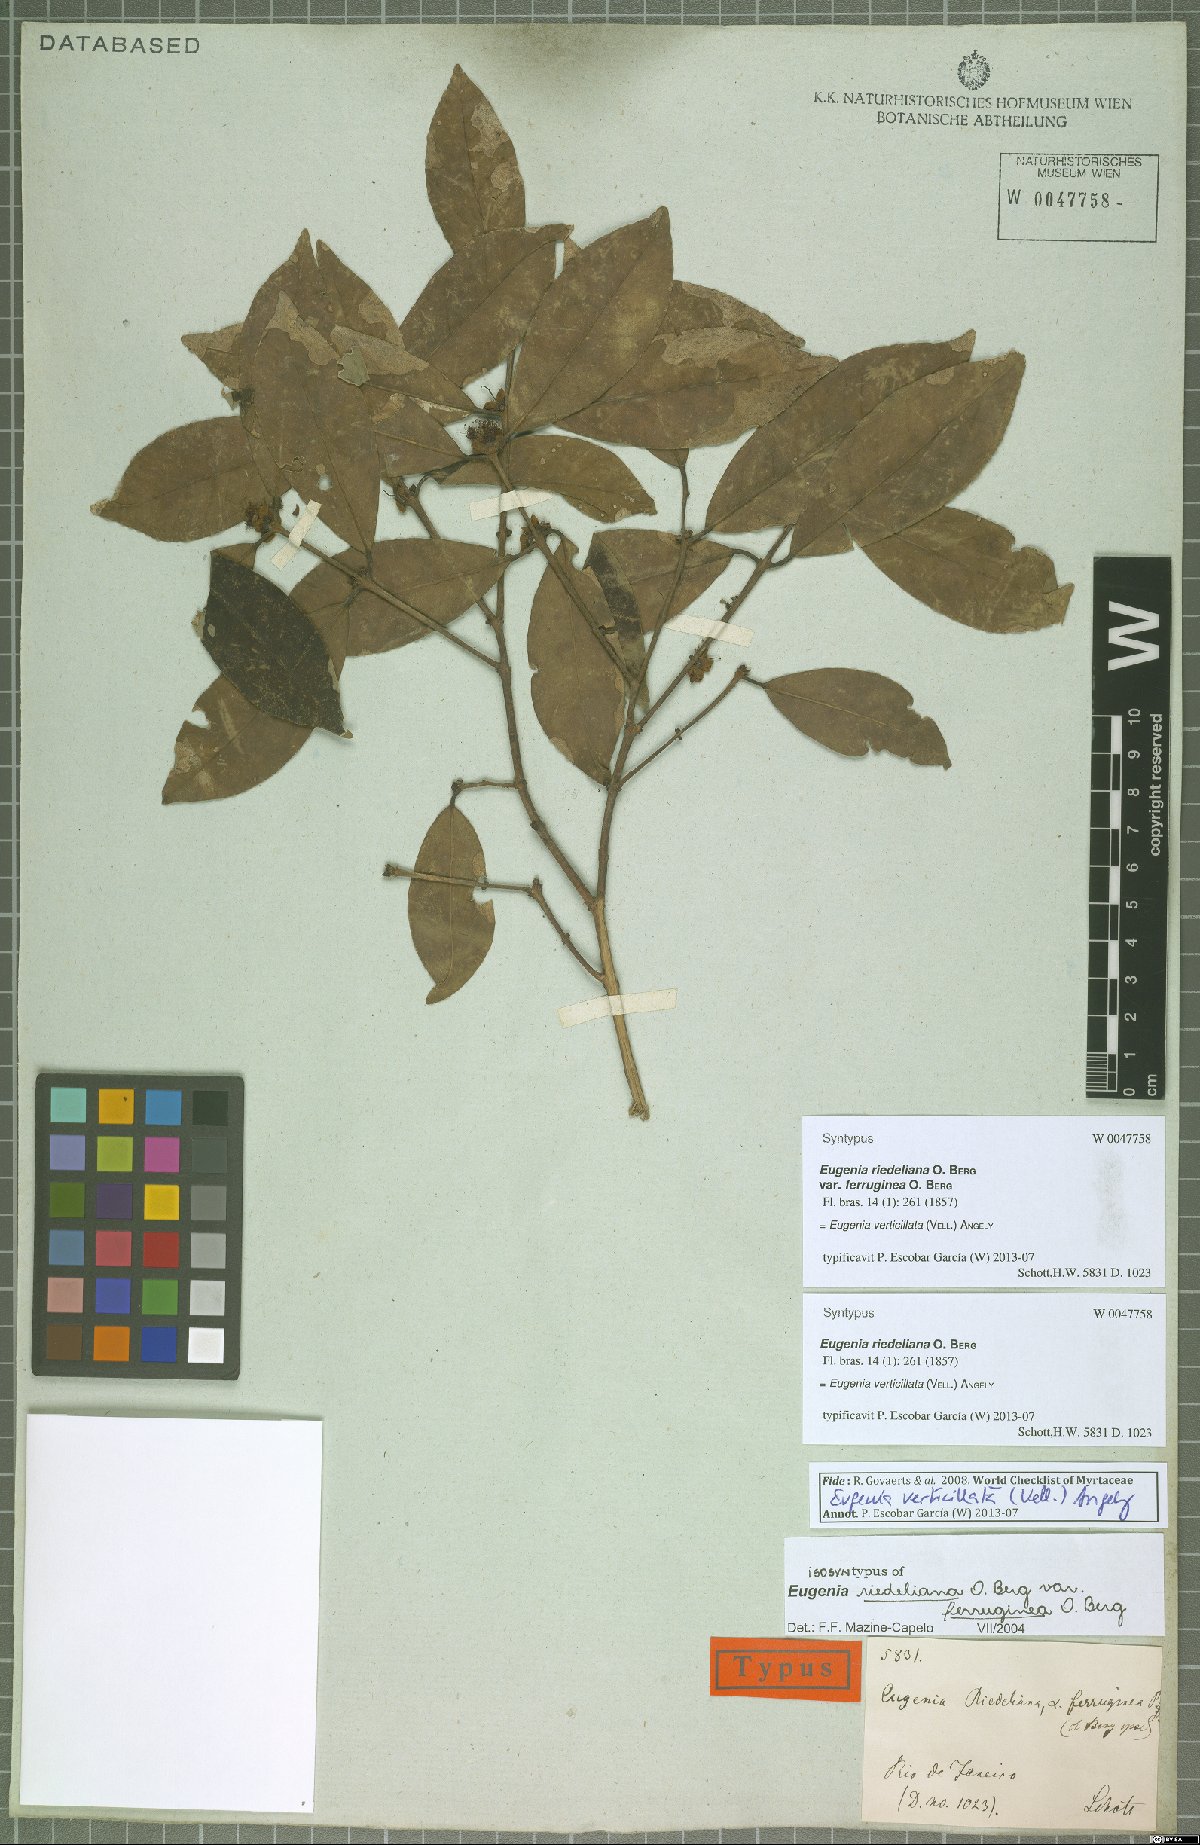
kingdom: Plantae
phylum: Tracheophyta
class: Magnoliopsida
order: Myrtales
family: Myrtaceae
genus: Eugenia
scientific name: Eugenia verticillata
